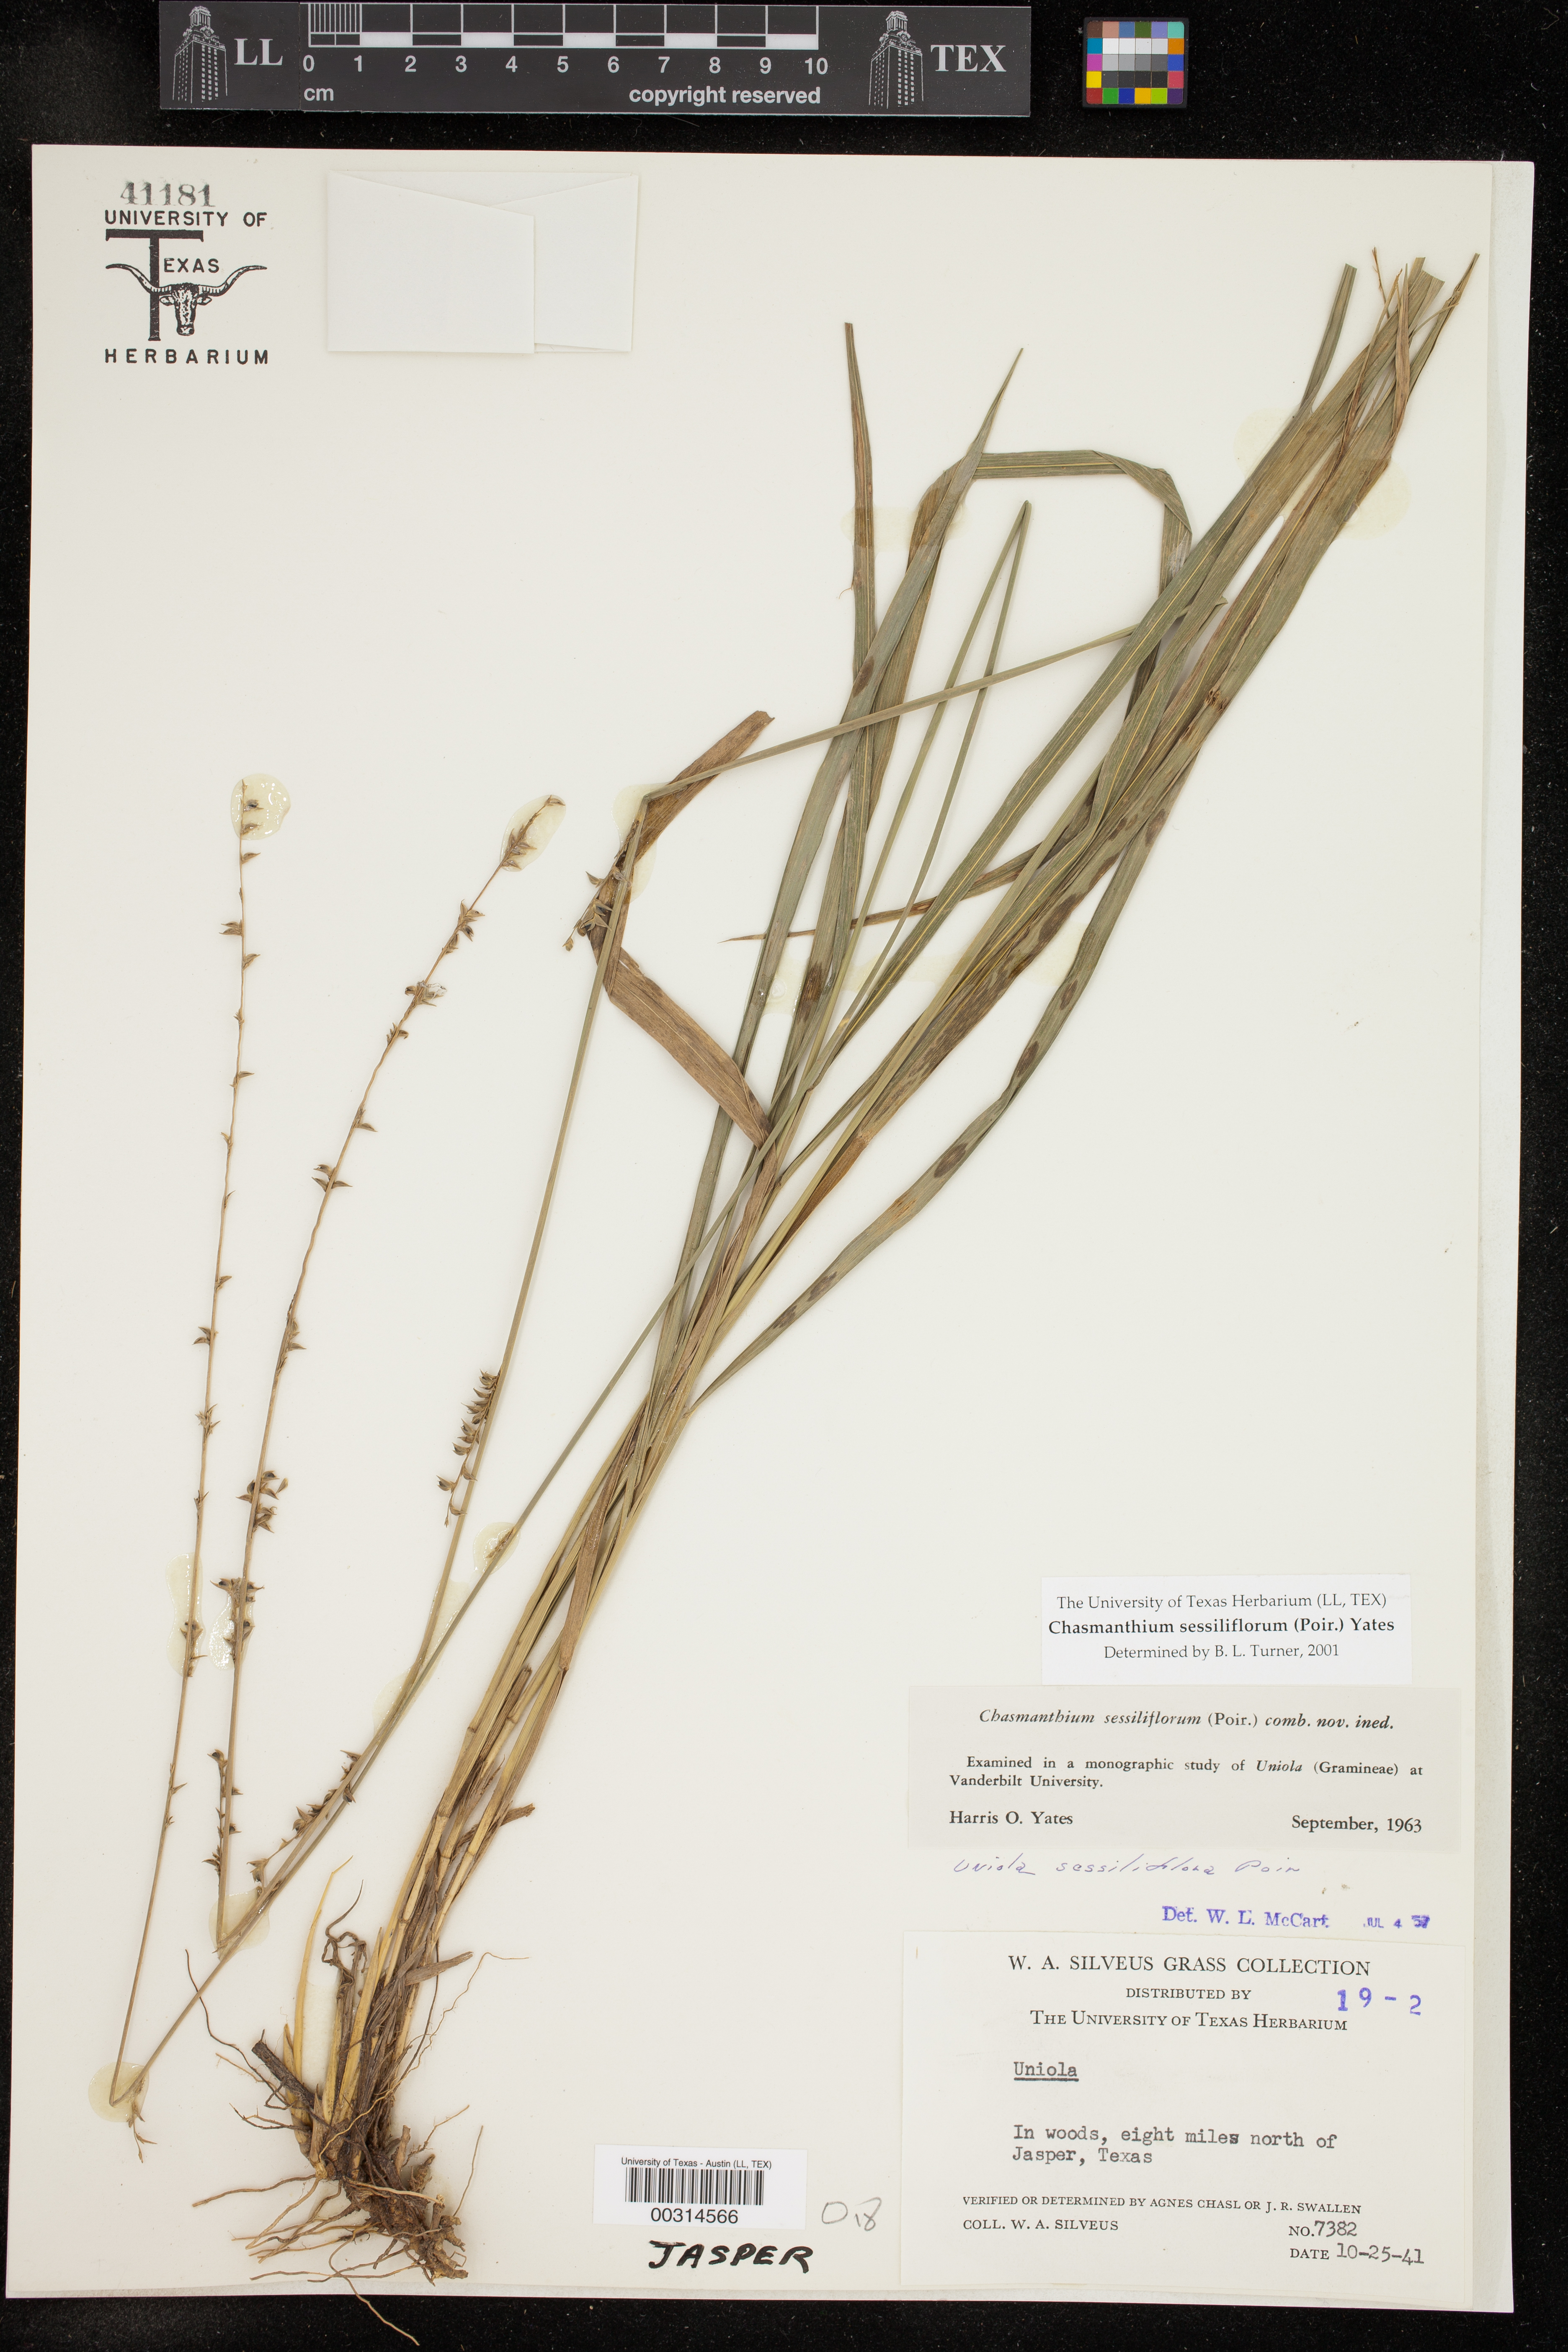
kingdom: Plantae
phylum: Tracheophyta
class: Liliopsida
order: Poales
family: Poaceae
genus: Chasmanthium
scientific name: Chasmanthium laxum
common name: Slender chasmanthium
